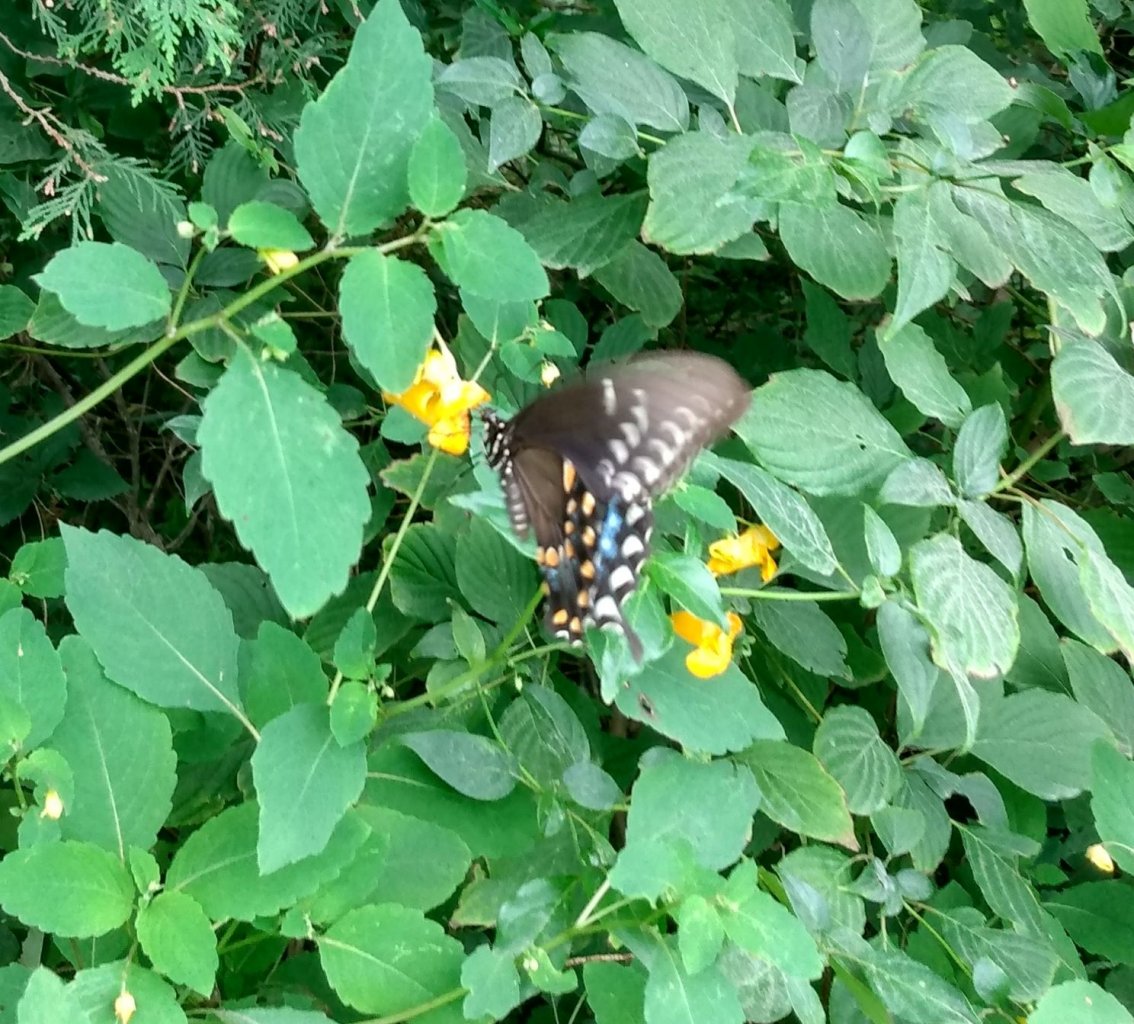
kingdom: Animalia
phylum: Arthropoda
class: Insecta
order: Lepidoptera
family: Papilionidae
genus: Pterourus
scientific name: Pterourus troilus
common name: Spicebush Swallowtail
